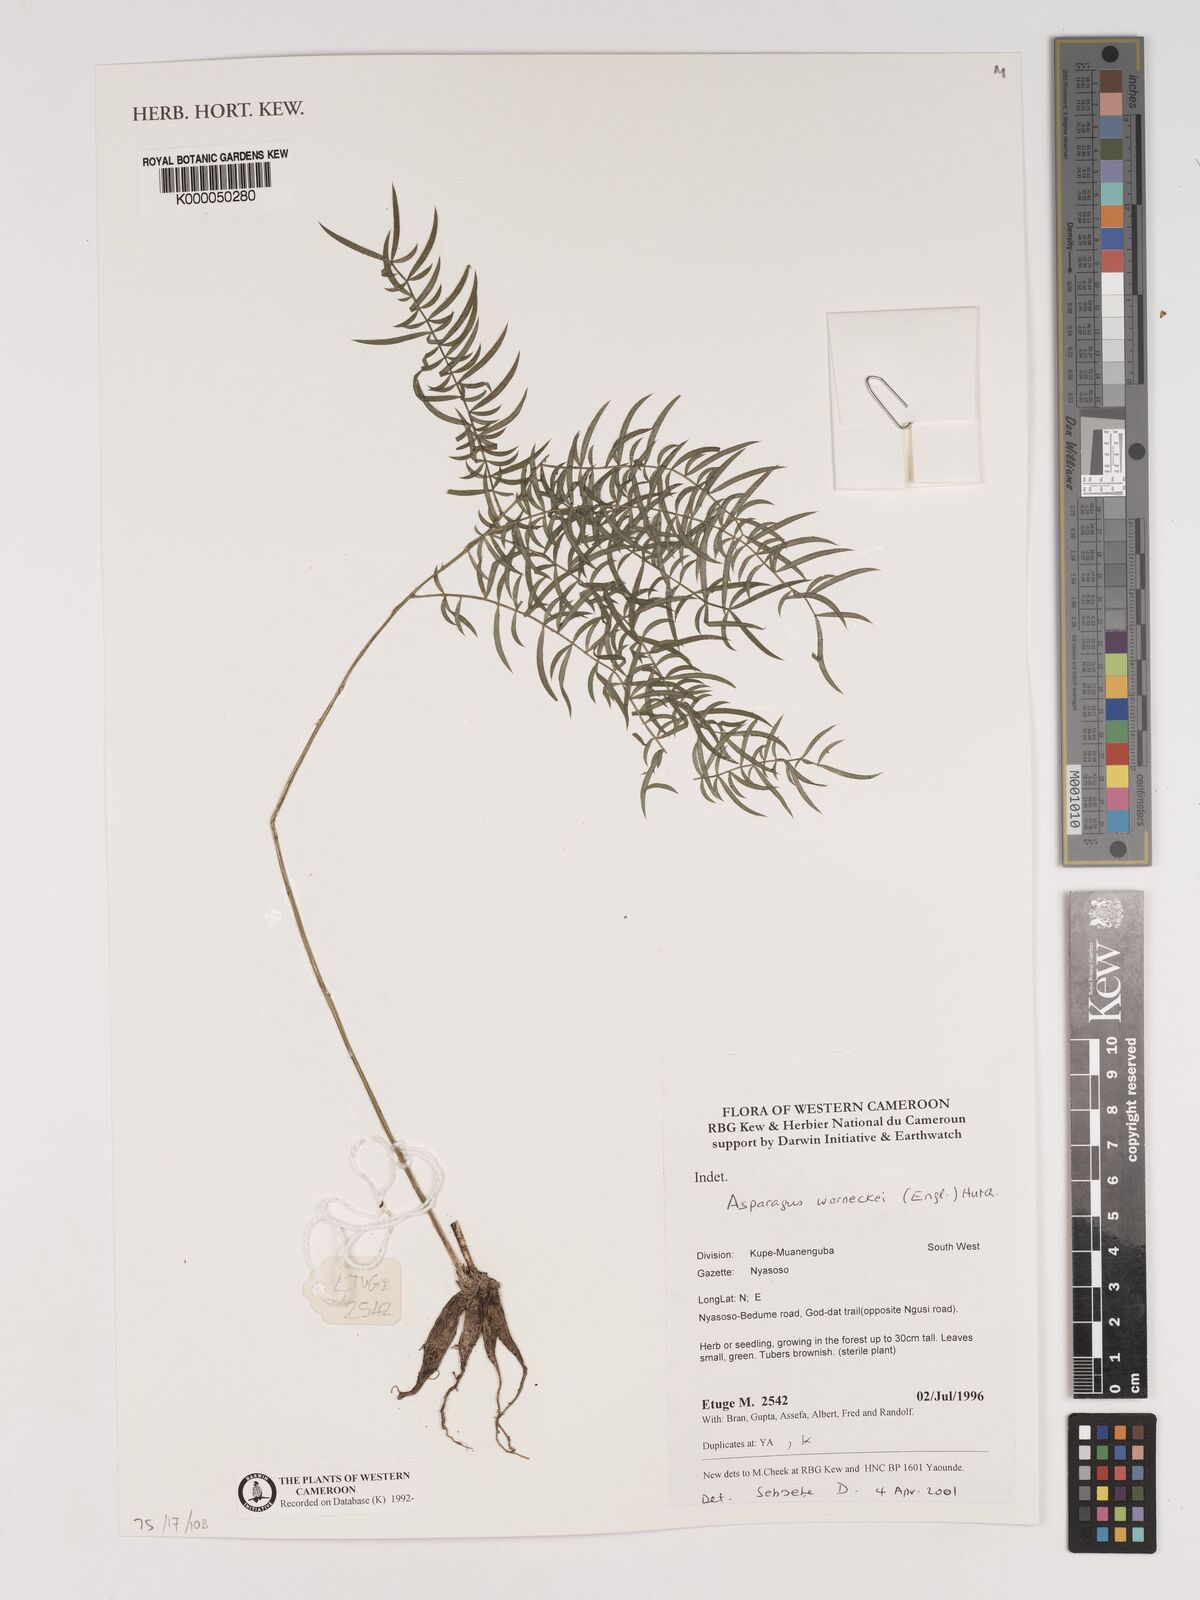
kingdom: Plantae
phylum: Tracheophyta
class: Liliopsida
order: Asparagales
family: Asparagaceae
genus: Asparagus
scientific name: Asparagus warneckei
